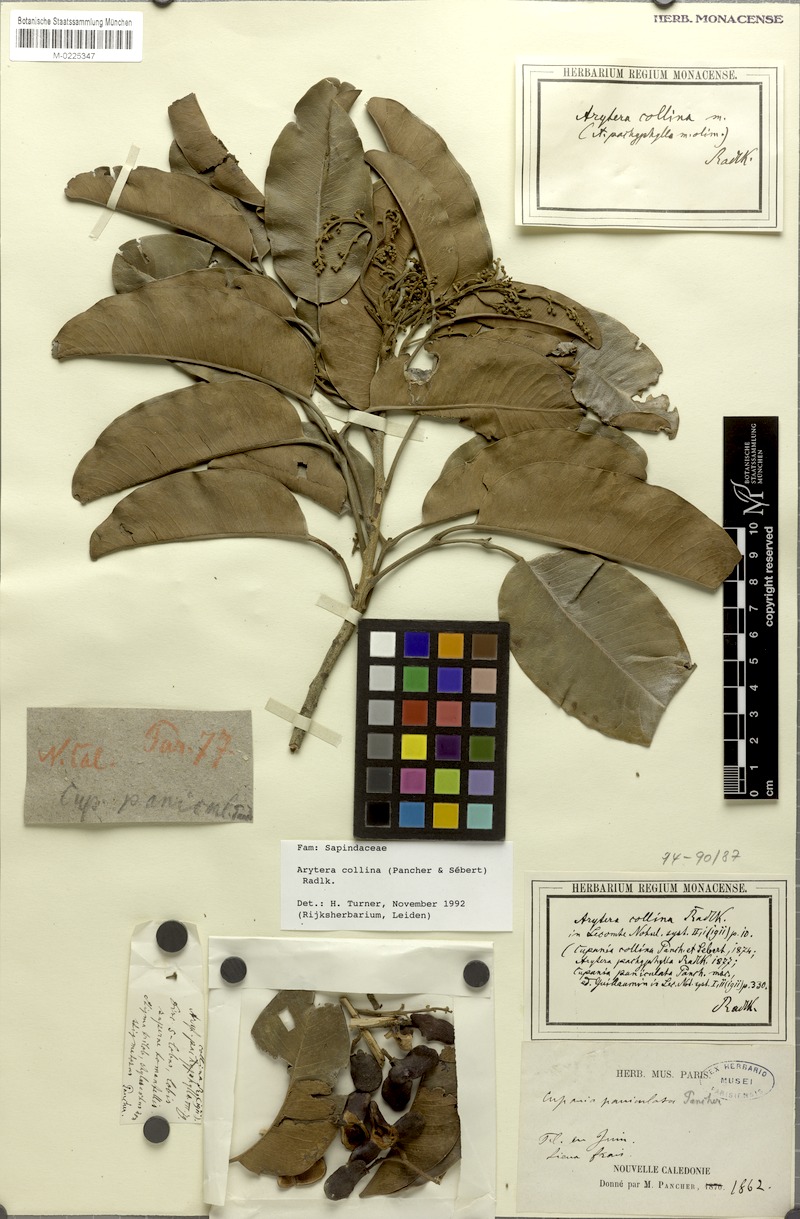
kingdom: Plantae
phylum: Tracheophyta
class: Magnoliopsida
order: Sapindales
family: Sapindaceae
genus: Neoarytera
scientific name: Neoarytera collina
